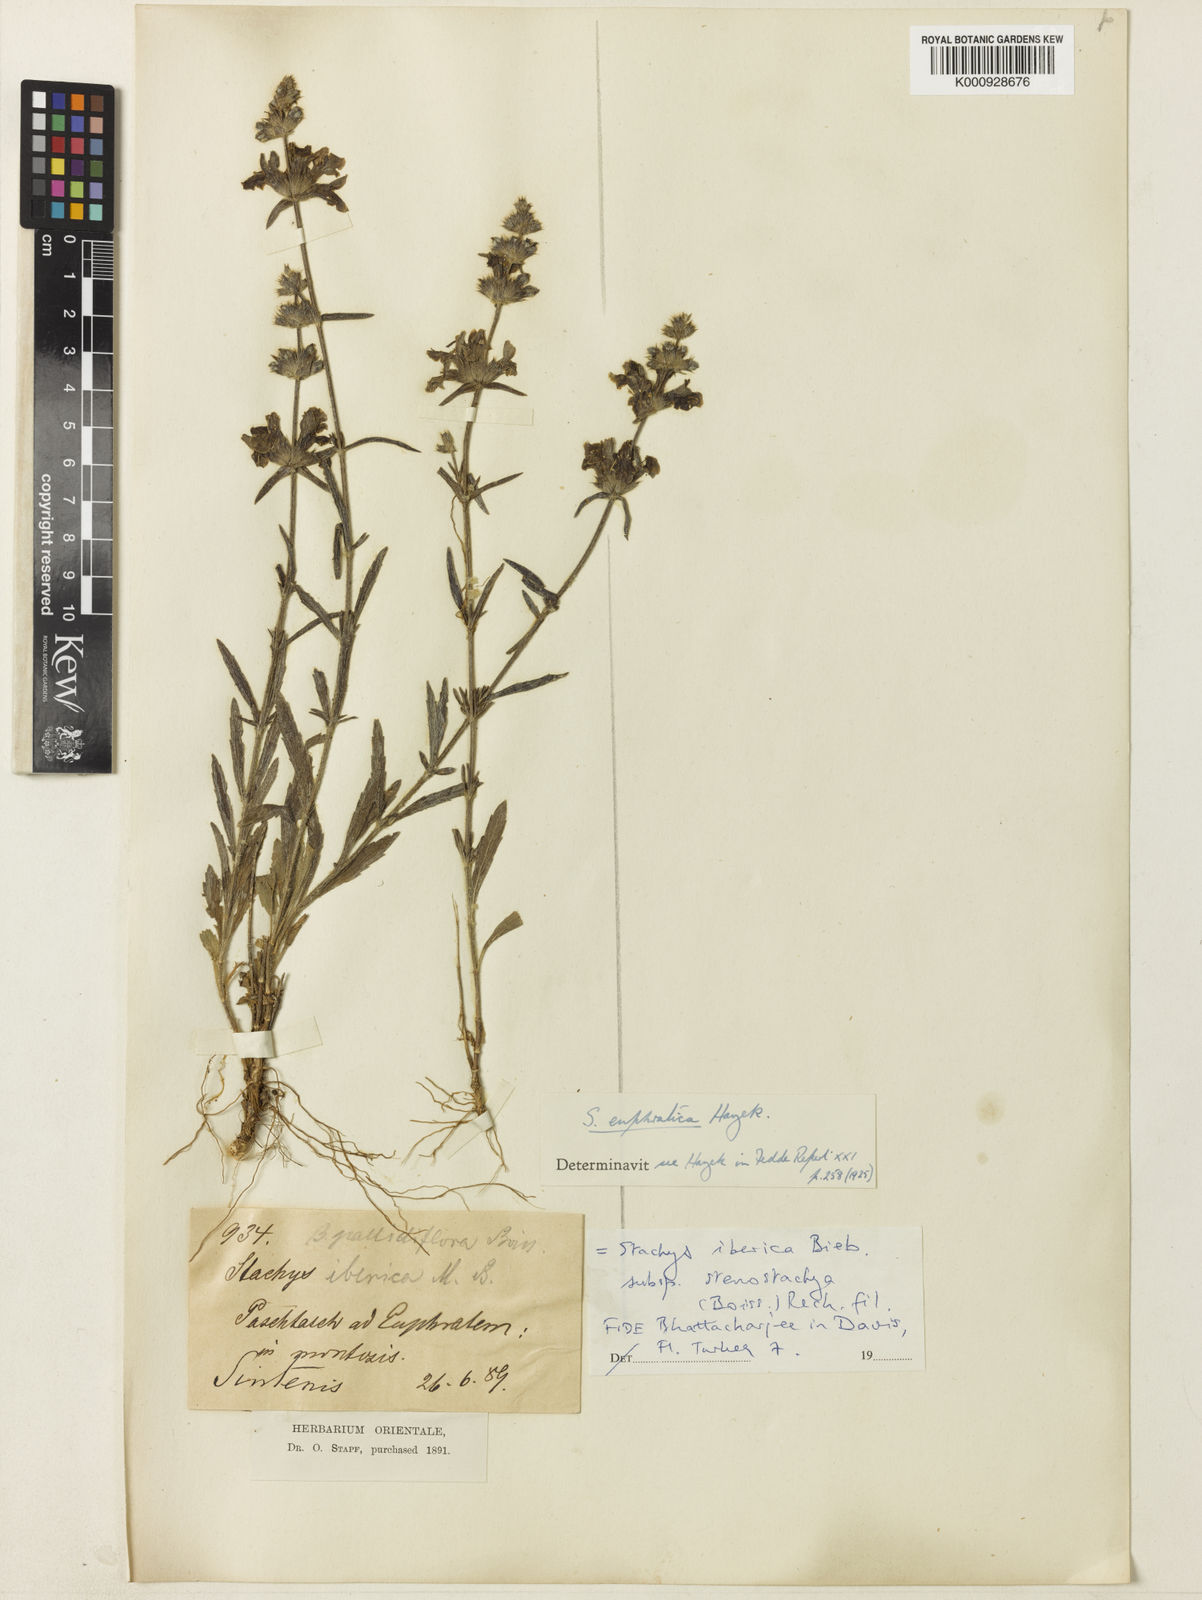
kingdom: Plantae
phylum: Tracheophyta
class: Magnoliopsida
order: Lamiales
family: Lamiaceae
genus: Stachys
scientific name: Stachys iberica
